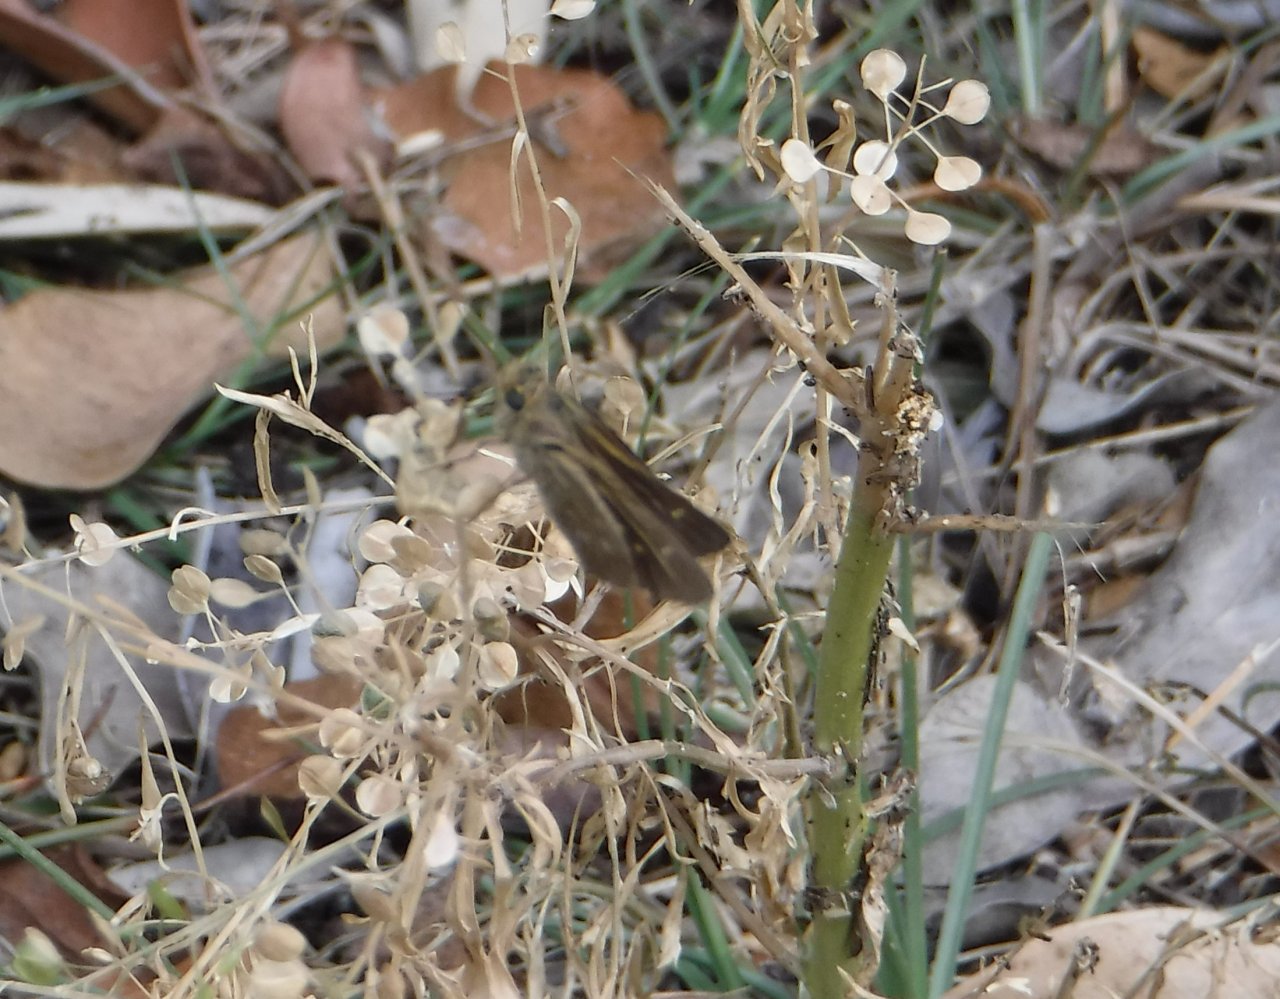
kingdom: Animalia
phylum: Arthropoda
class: Insecta
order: Lepidoptera
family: Hesperiidae
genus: Oligoria
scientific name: Oligoria maculata
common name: Twin-spot Skipper
